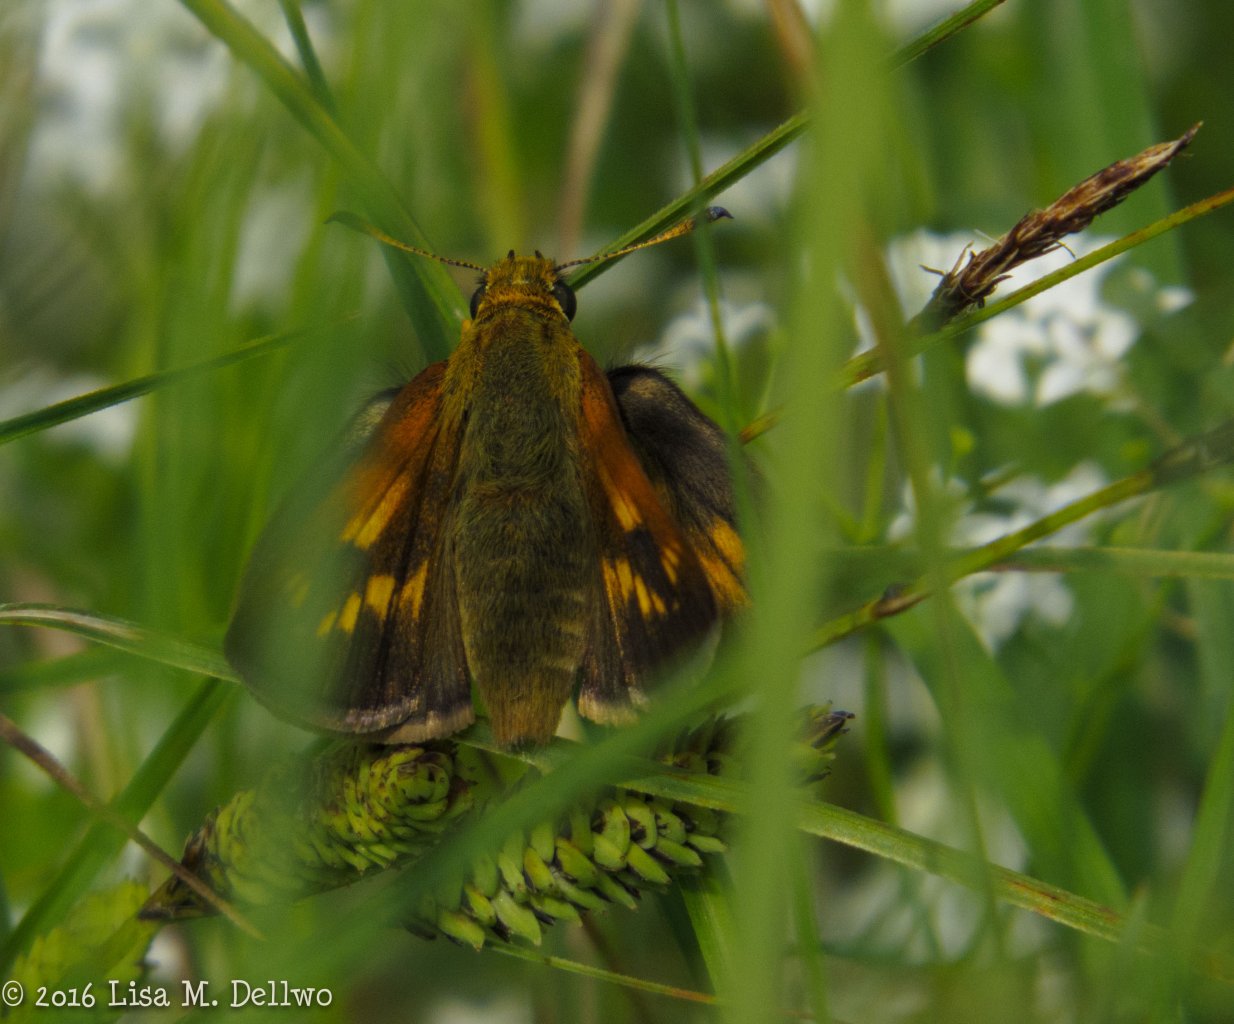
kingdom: Animalia
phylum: Arthropoda
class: Insecta
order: Lepidoptera
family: Hesperiidae
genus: Polites
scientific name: Polites
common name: Long Dash Skipper
